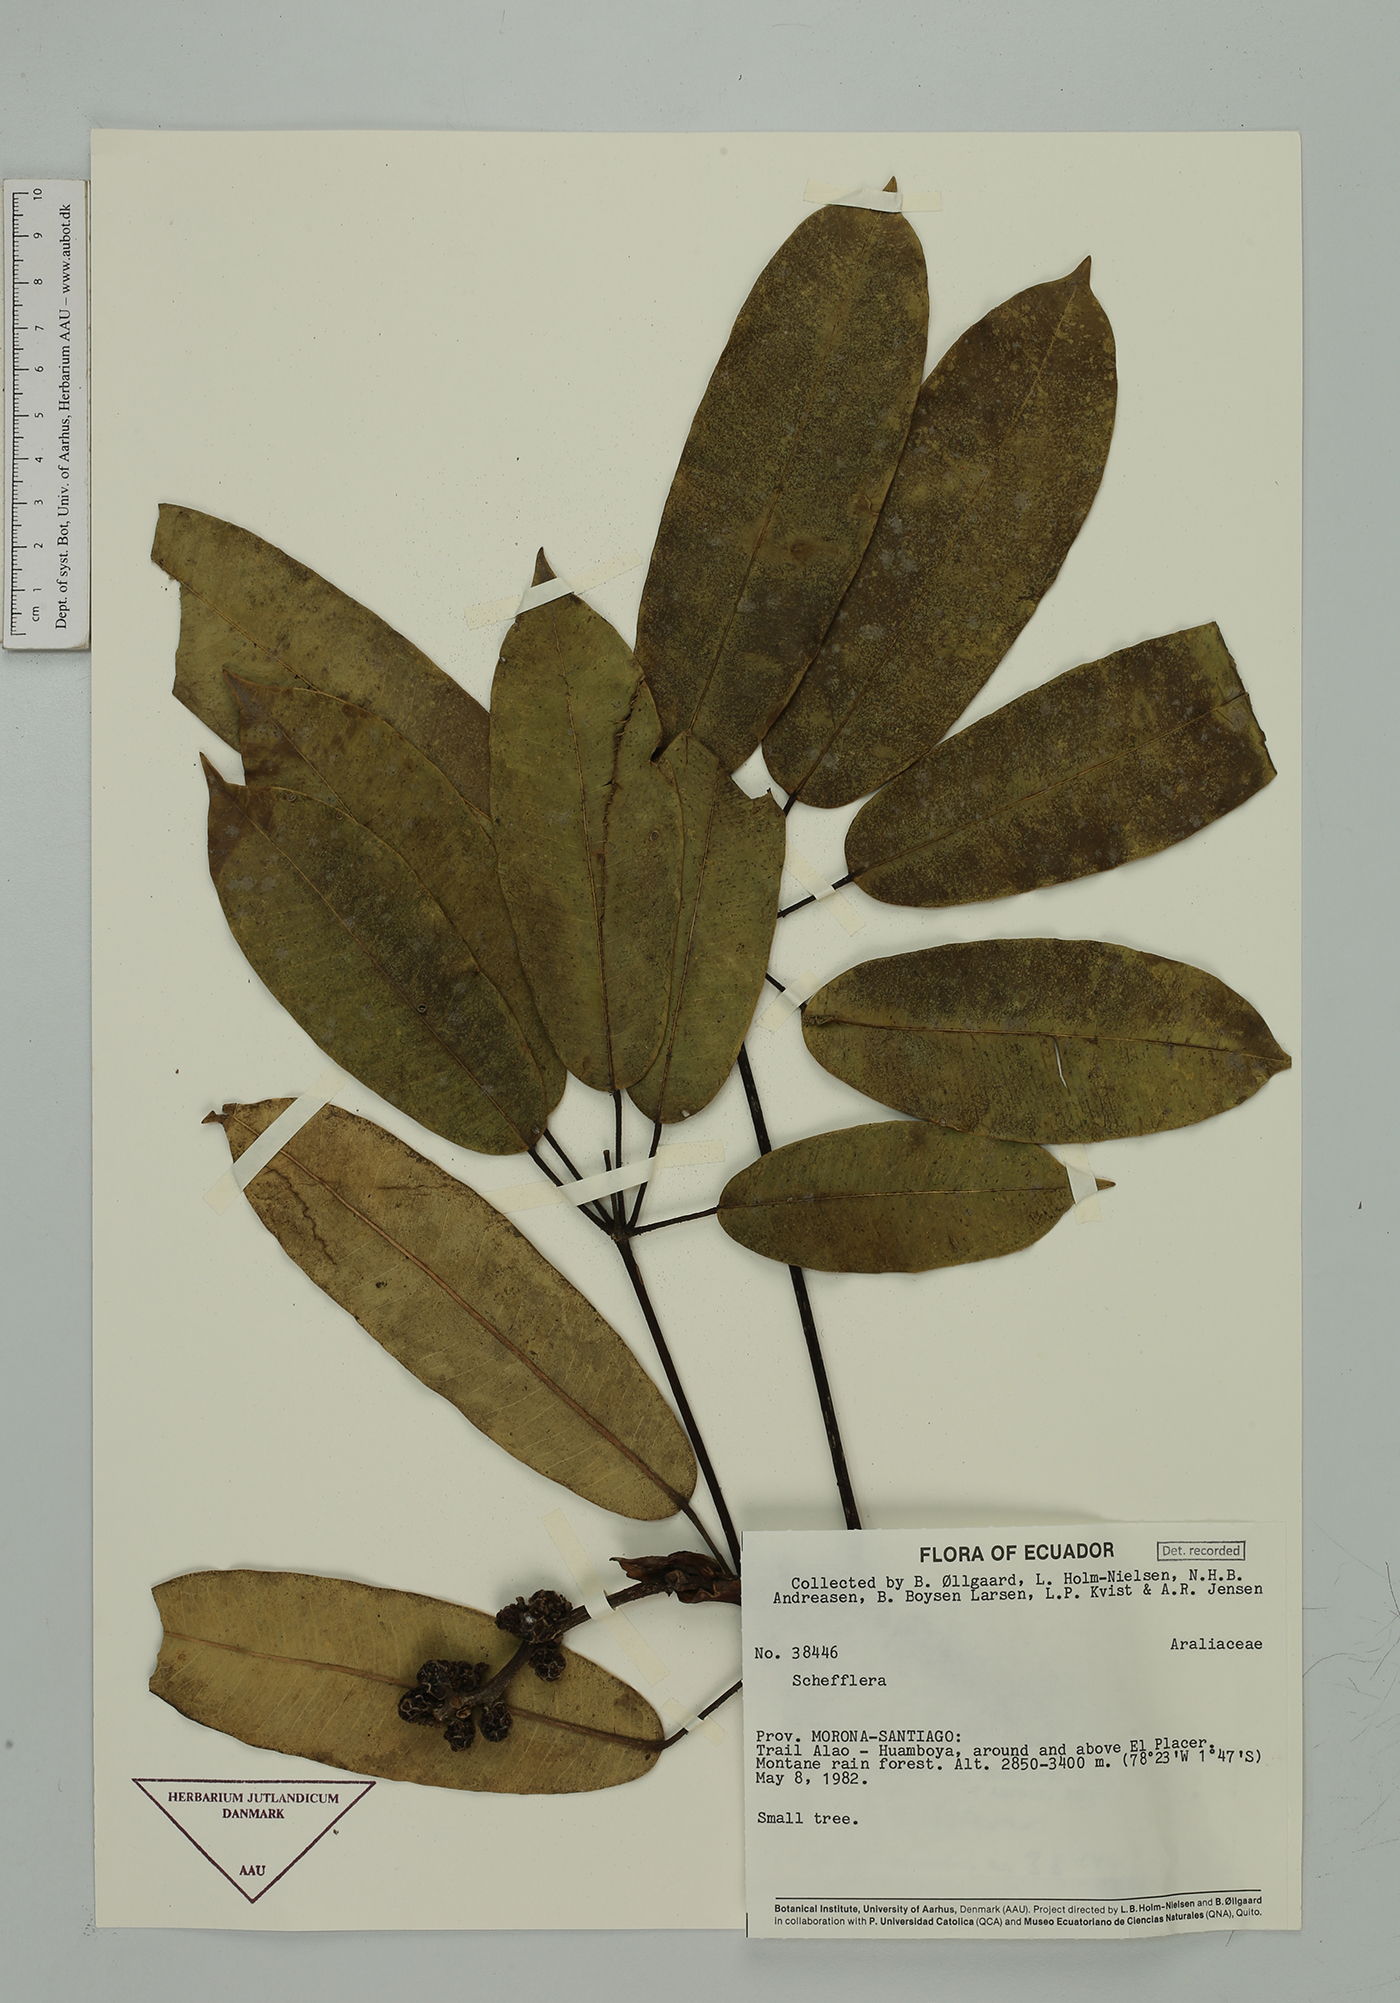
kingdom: Plantae
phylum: Tracheophyta
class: Magnoliopsida
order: Apiales
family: Araliaceae
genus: Sciodaphyllum
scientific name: Sciodaphyllum
